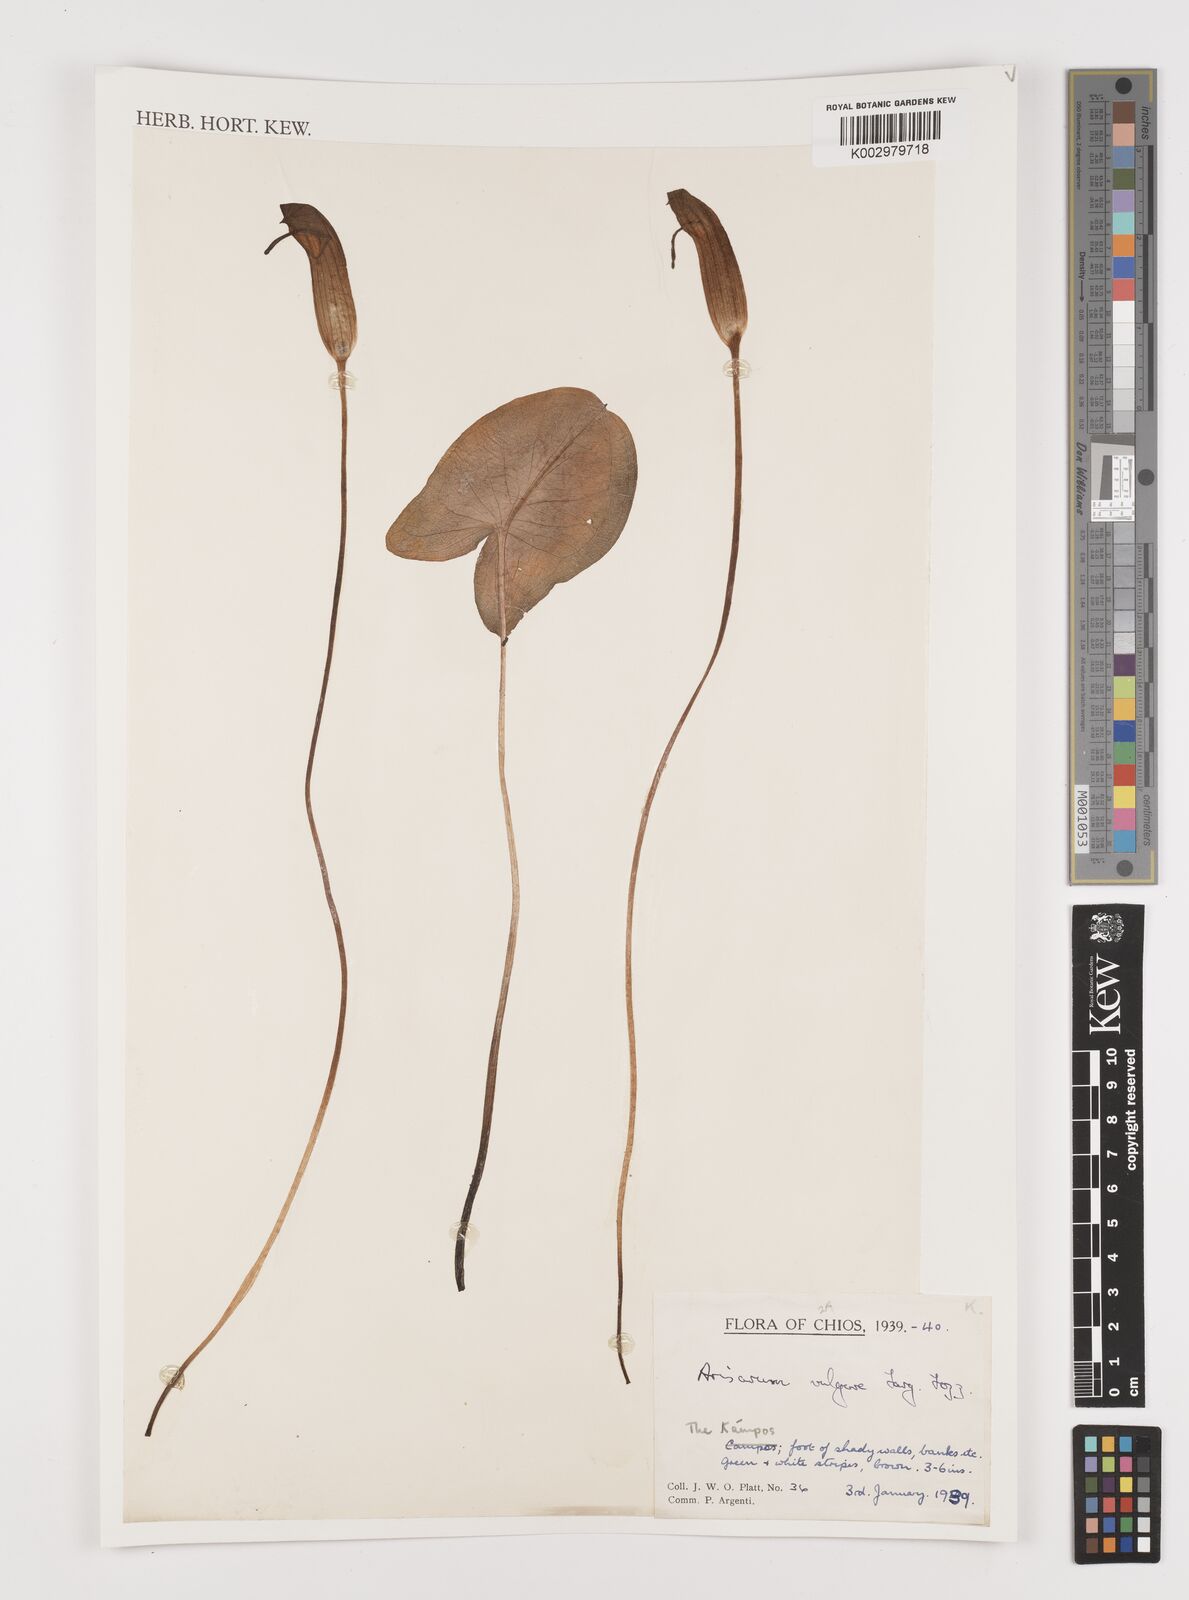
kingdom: Plantae
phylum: Tracheophyta
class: Liliopsida
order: Alismatales
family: Araceae
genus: Arisarum
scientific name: Arisarum vulgare
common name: Common arisarum
